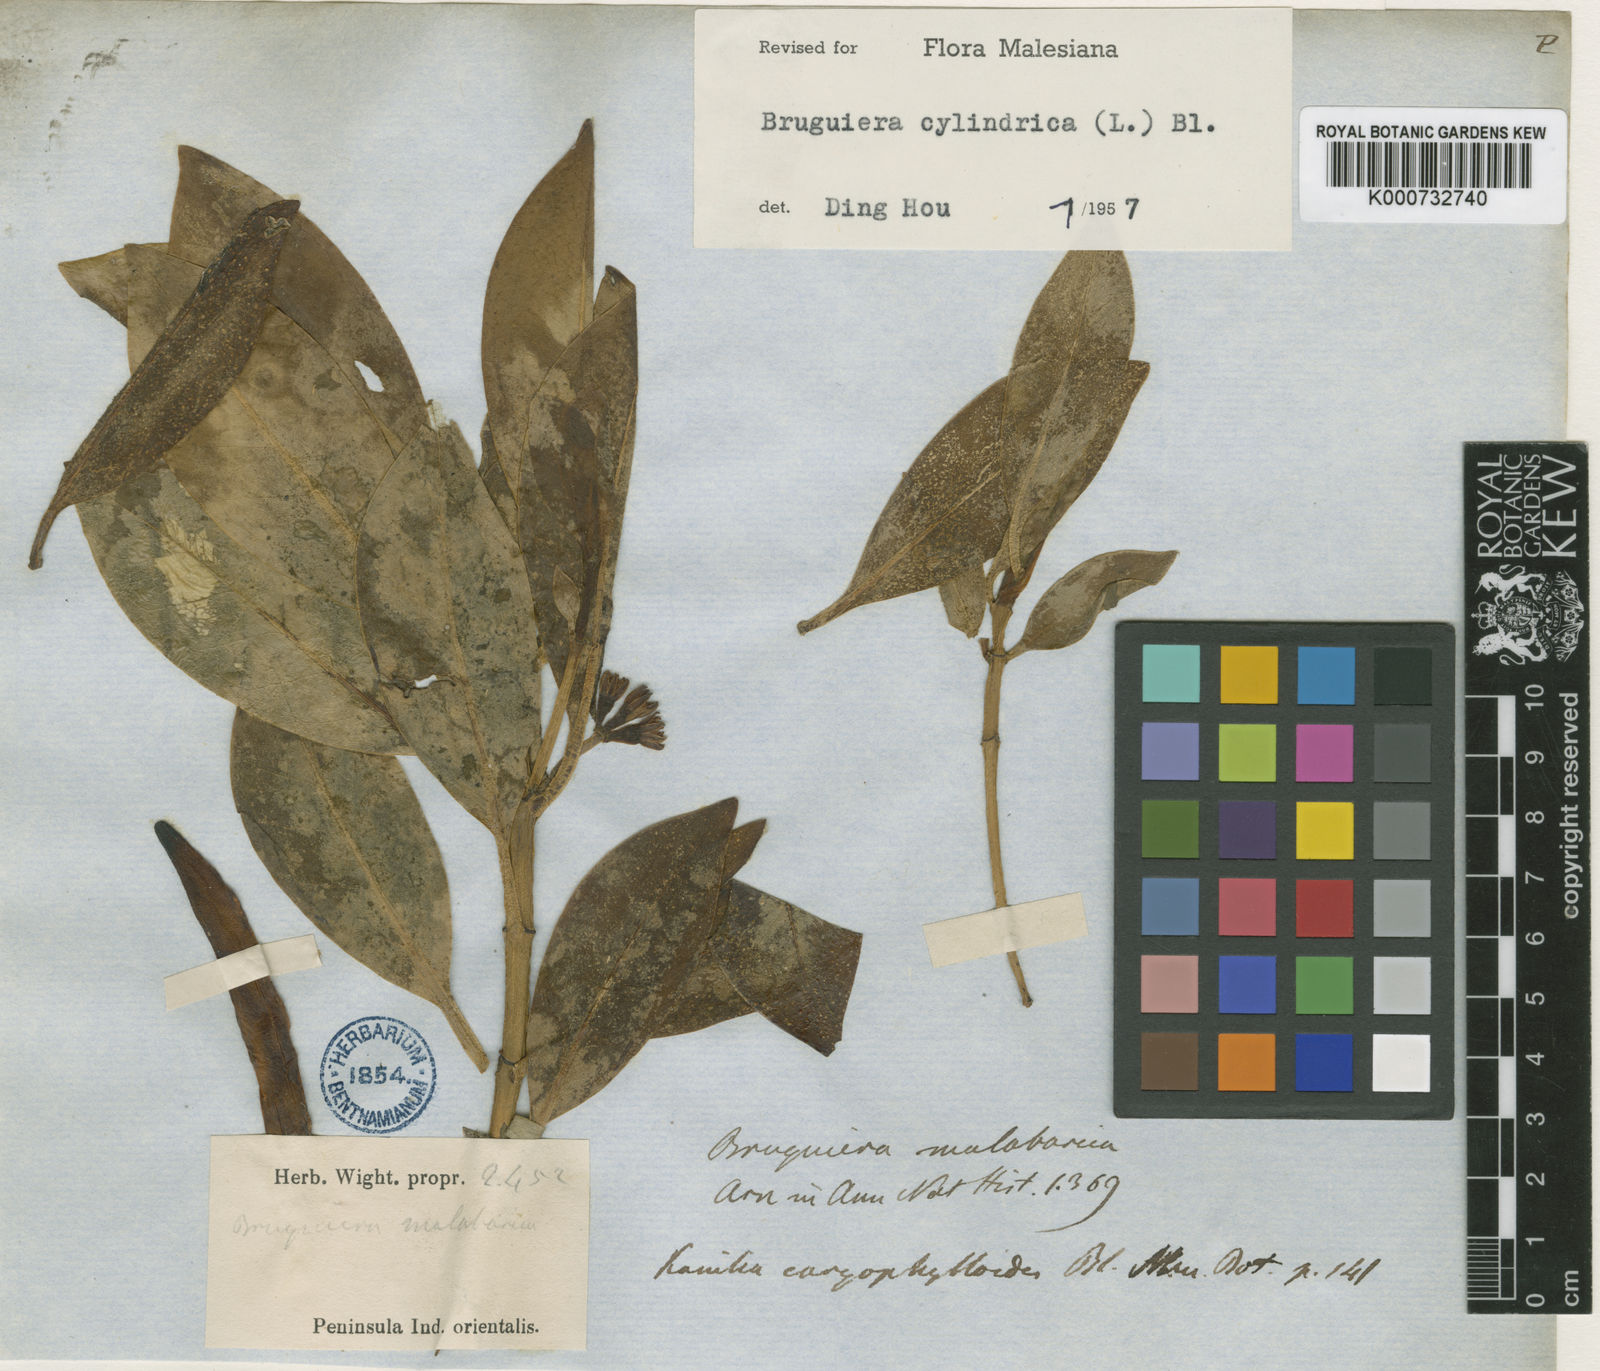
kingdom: Plantae
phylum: Tracheophyta
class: Magnoliopsida
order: Malpighiales
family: Rhizophoraceae
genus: Bruguiera
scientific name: Bruguiera cylindrica
